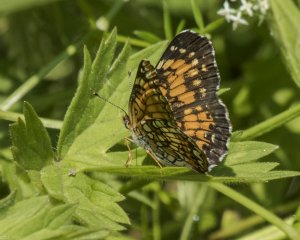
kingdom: Animalia
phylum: Arthropoda
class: Insecta
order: Lepidoptera
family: Nymphalidae
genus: Chlosyne
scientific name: Chlosyne harrisii
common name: Harris's Checkerspot
